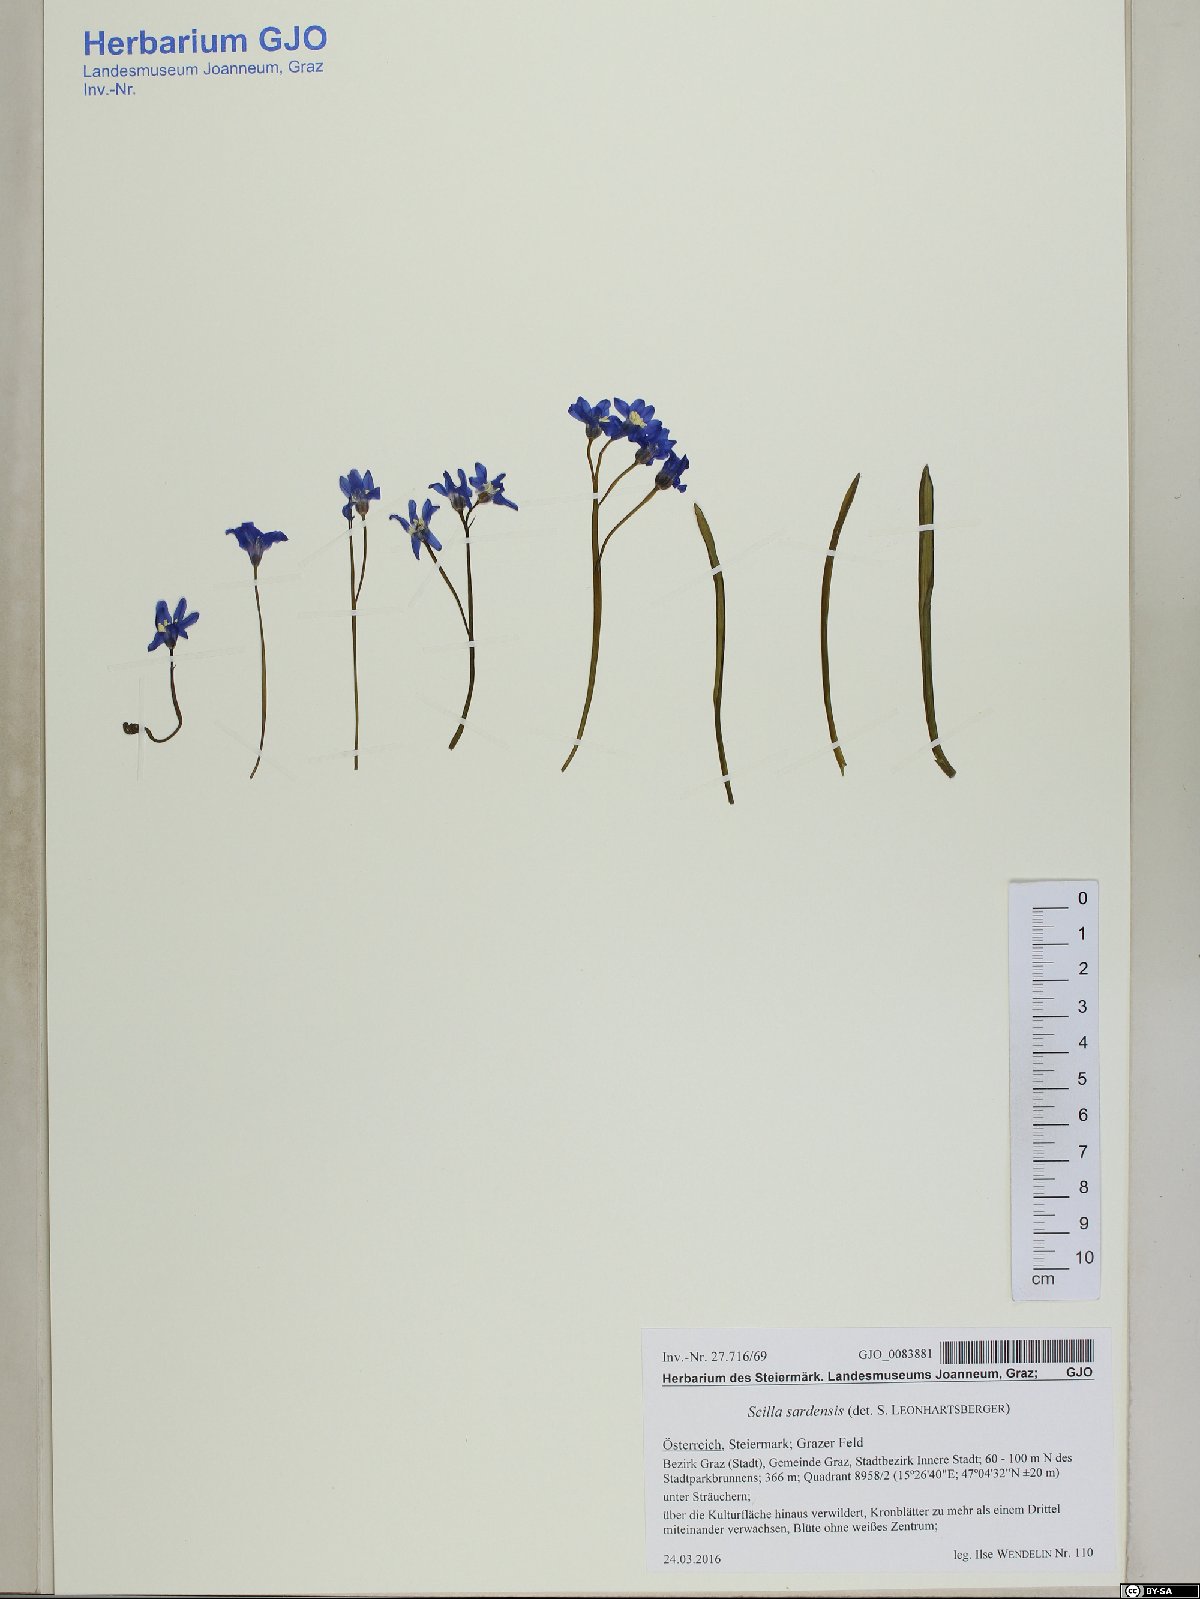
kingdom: Plantae
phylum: Tracheophyta
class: Liliopsida
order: Asparagales
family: Asparagaceae
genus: Scilla
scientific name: Scilla sardensis
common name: Lesser glory-of-the-snow
